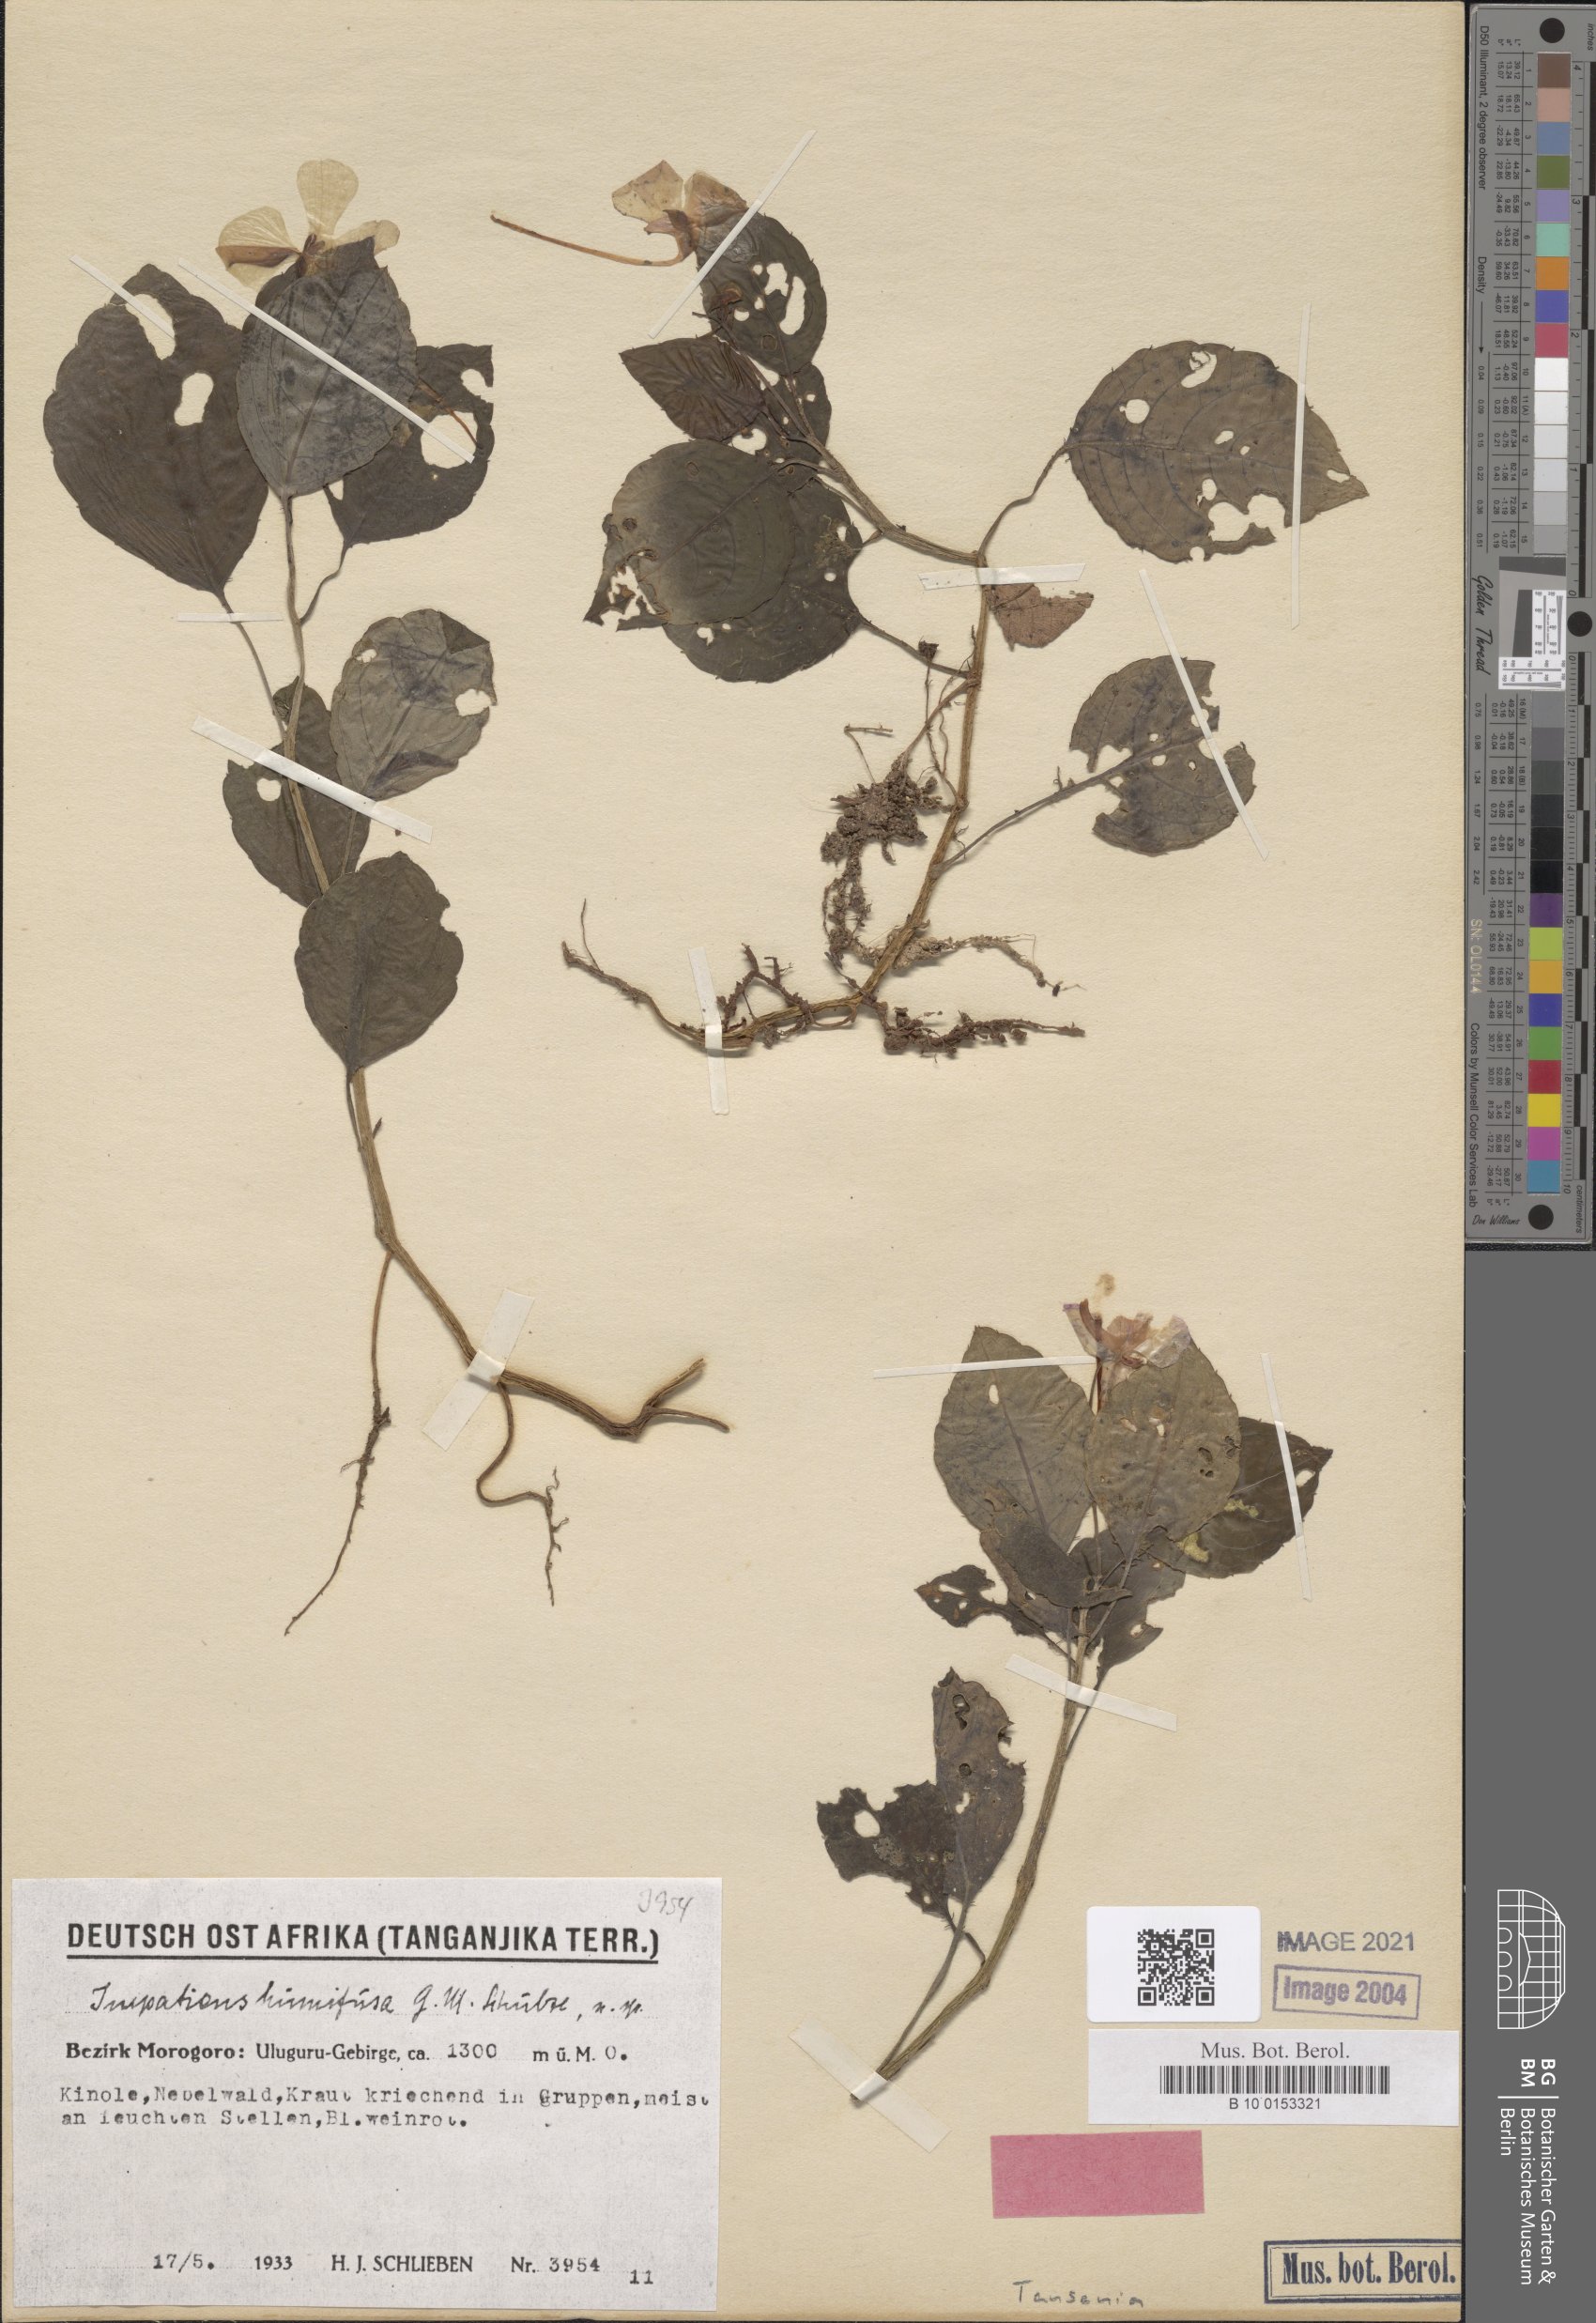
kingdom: Plantae
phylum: Tracheophyta
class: Magnoliopsida
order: Ericales
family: Balsaminaceae
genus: Impatiens
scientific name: Impatiens humifusa
